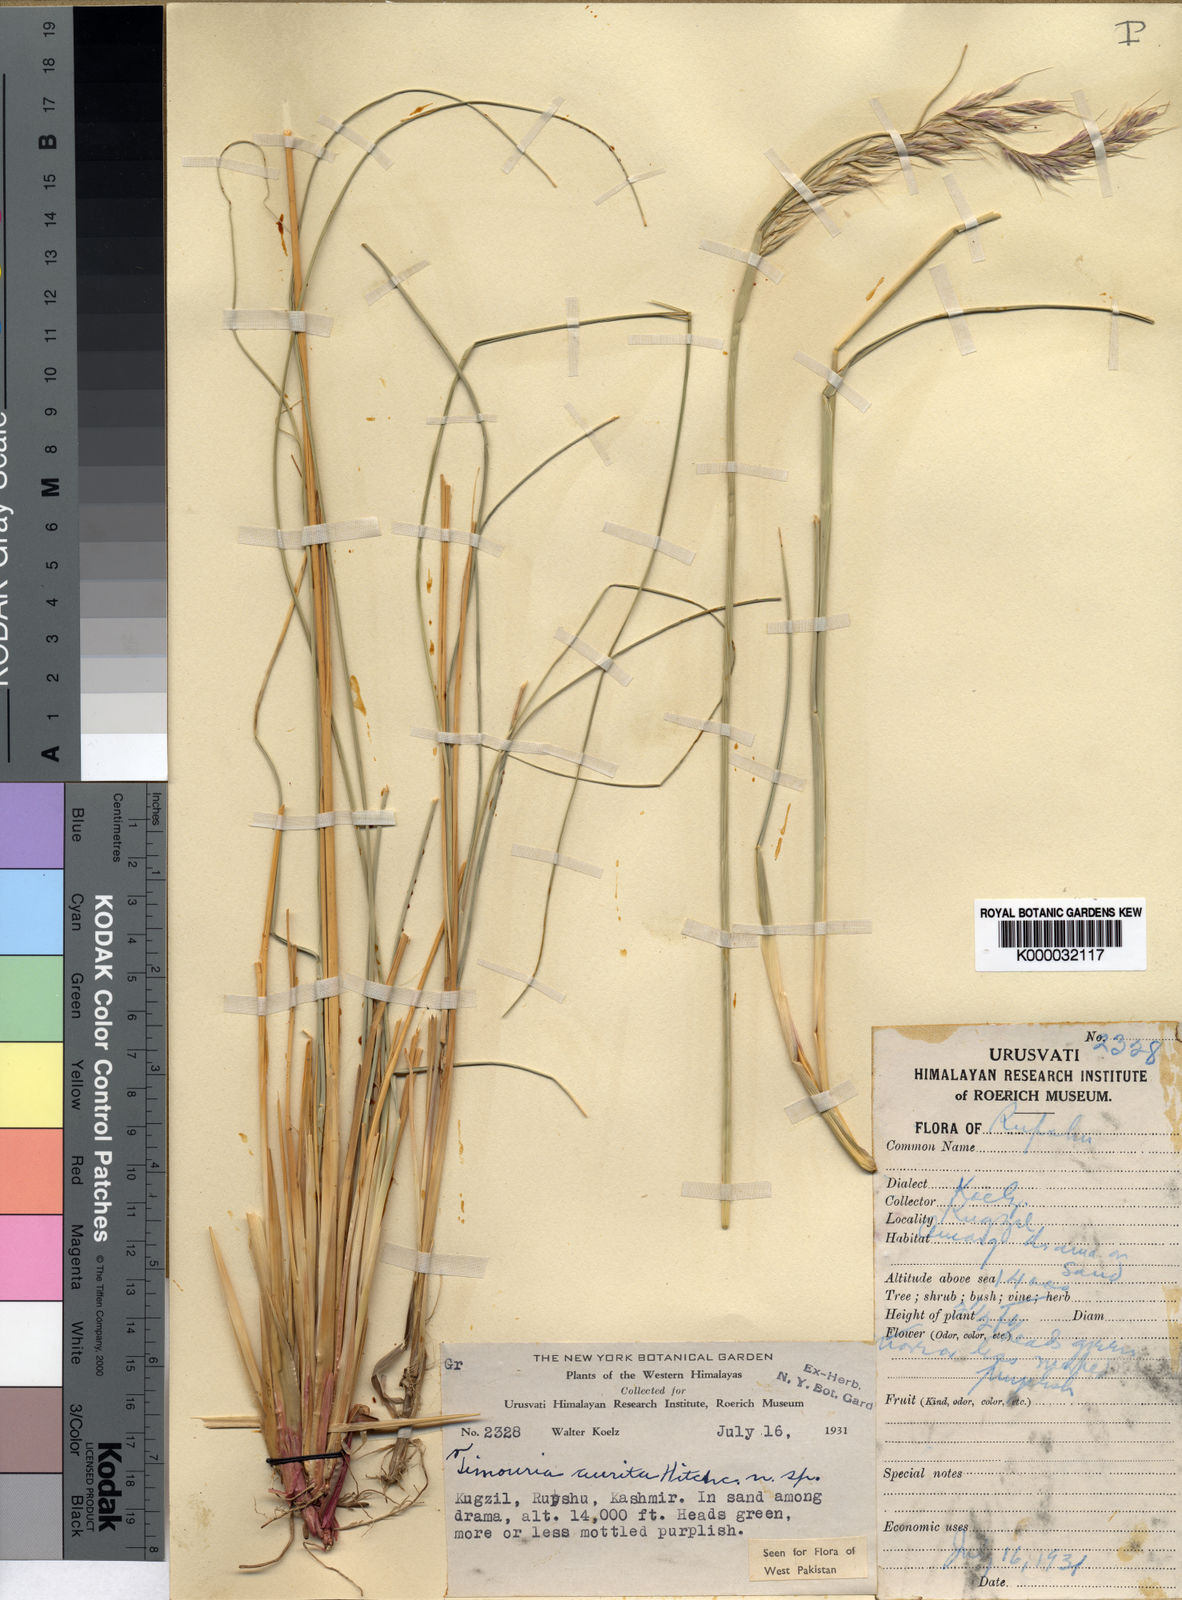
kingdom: Plantae
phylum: Tracheophyta
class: Liliopsida
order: Poales
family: Poaceae
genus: Trikeraia
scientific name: Trikeraia hookeri
